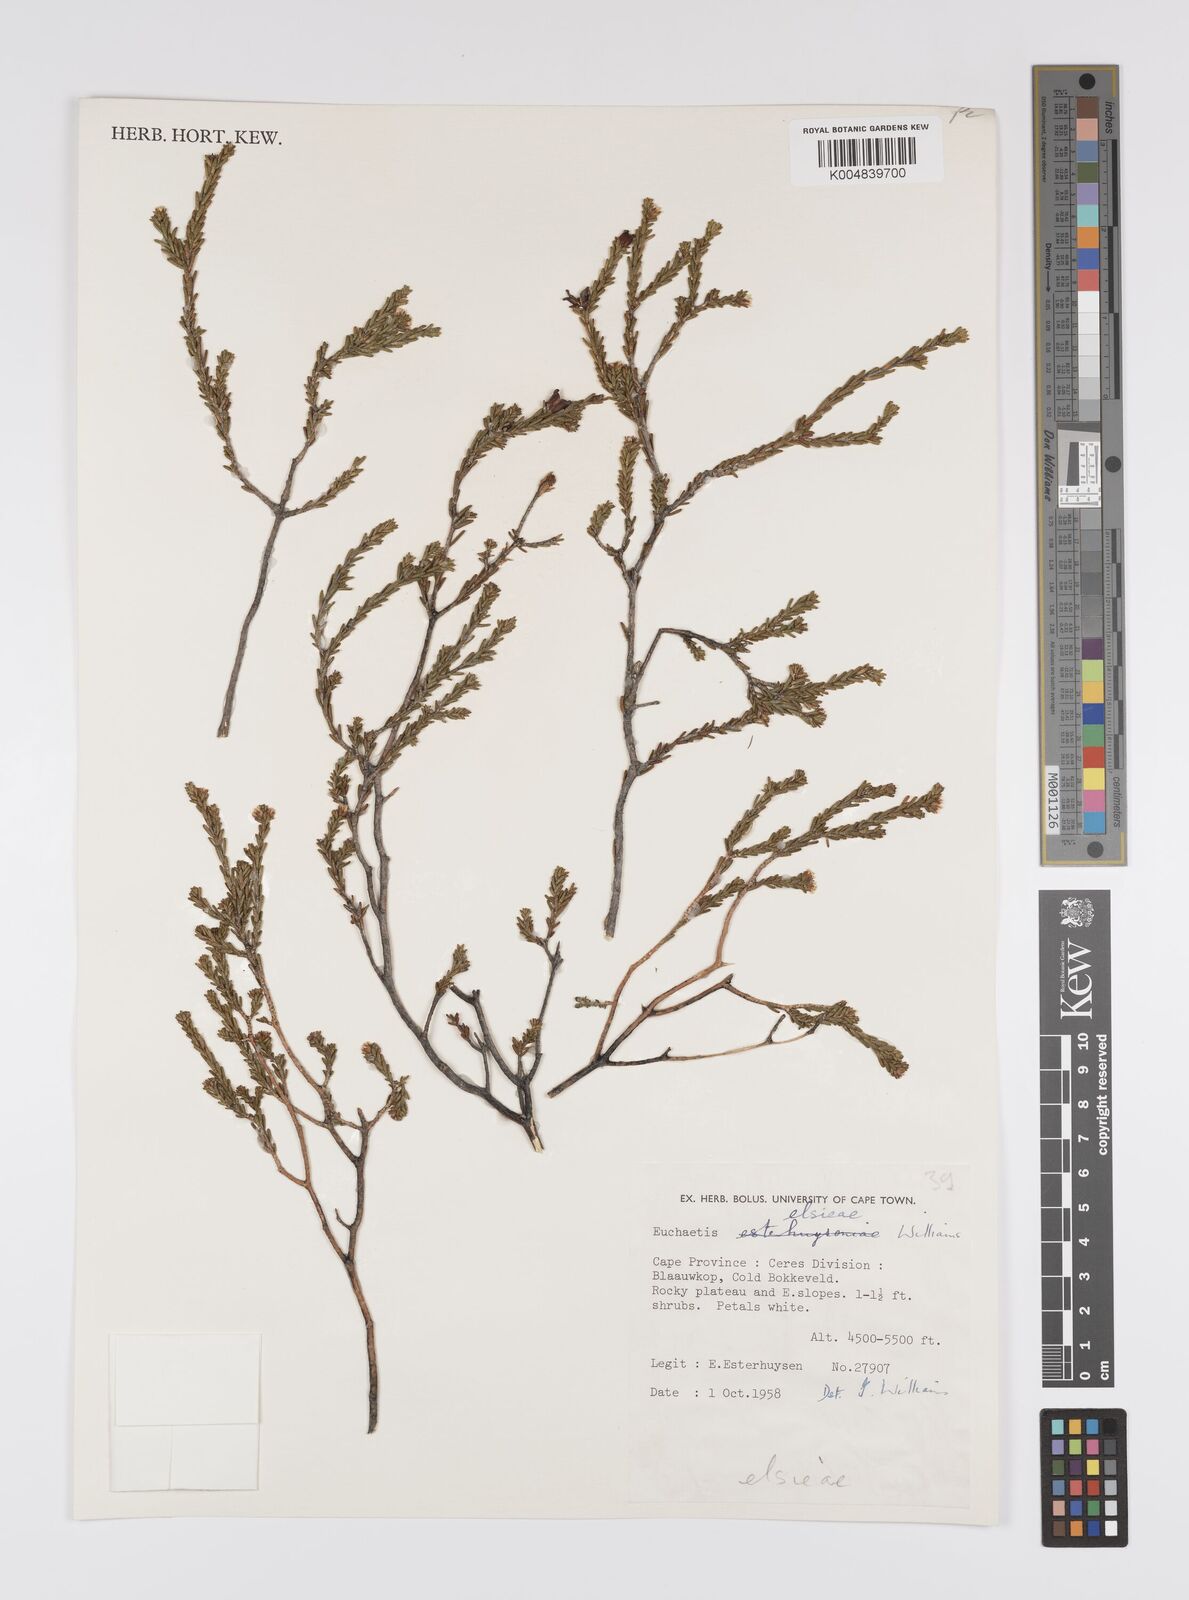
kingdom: Plantae
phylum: Tracheophyta
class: Magnoliopsida
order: Sapindales
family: Rutaceae
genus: Euchaetis
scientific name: Euchaetis elsieae
